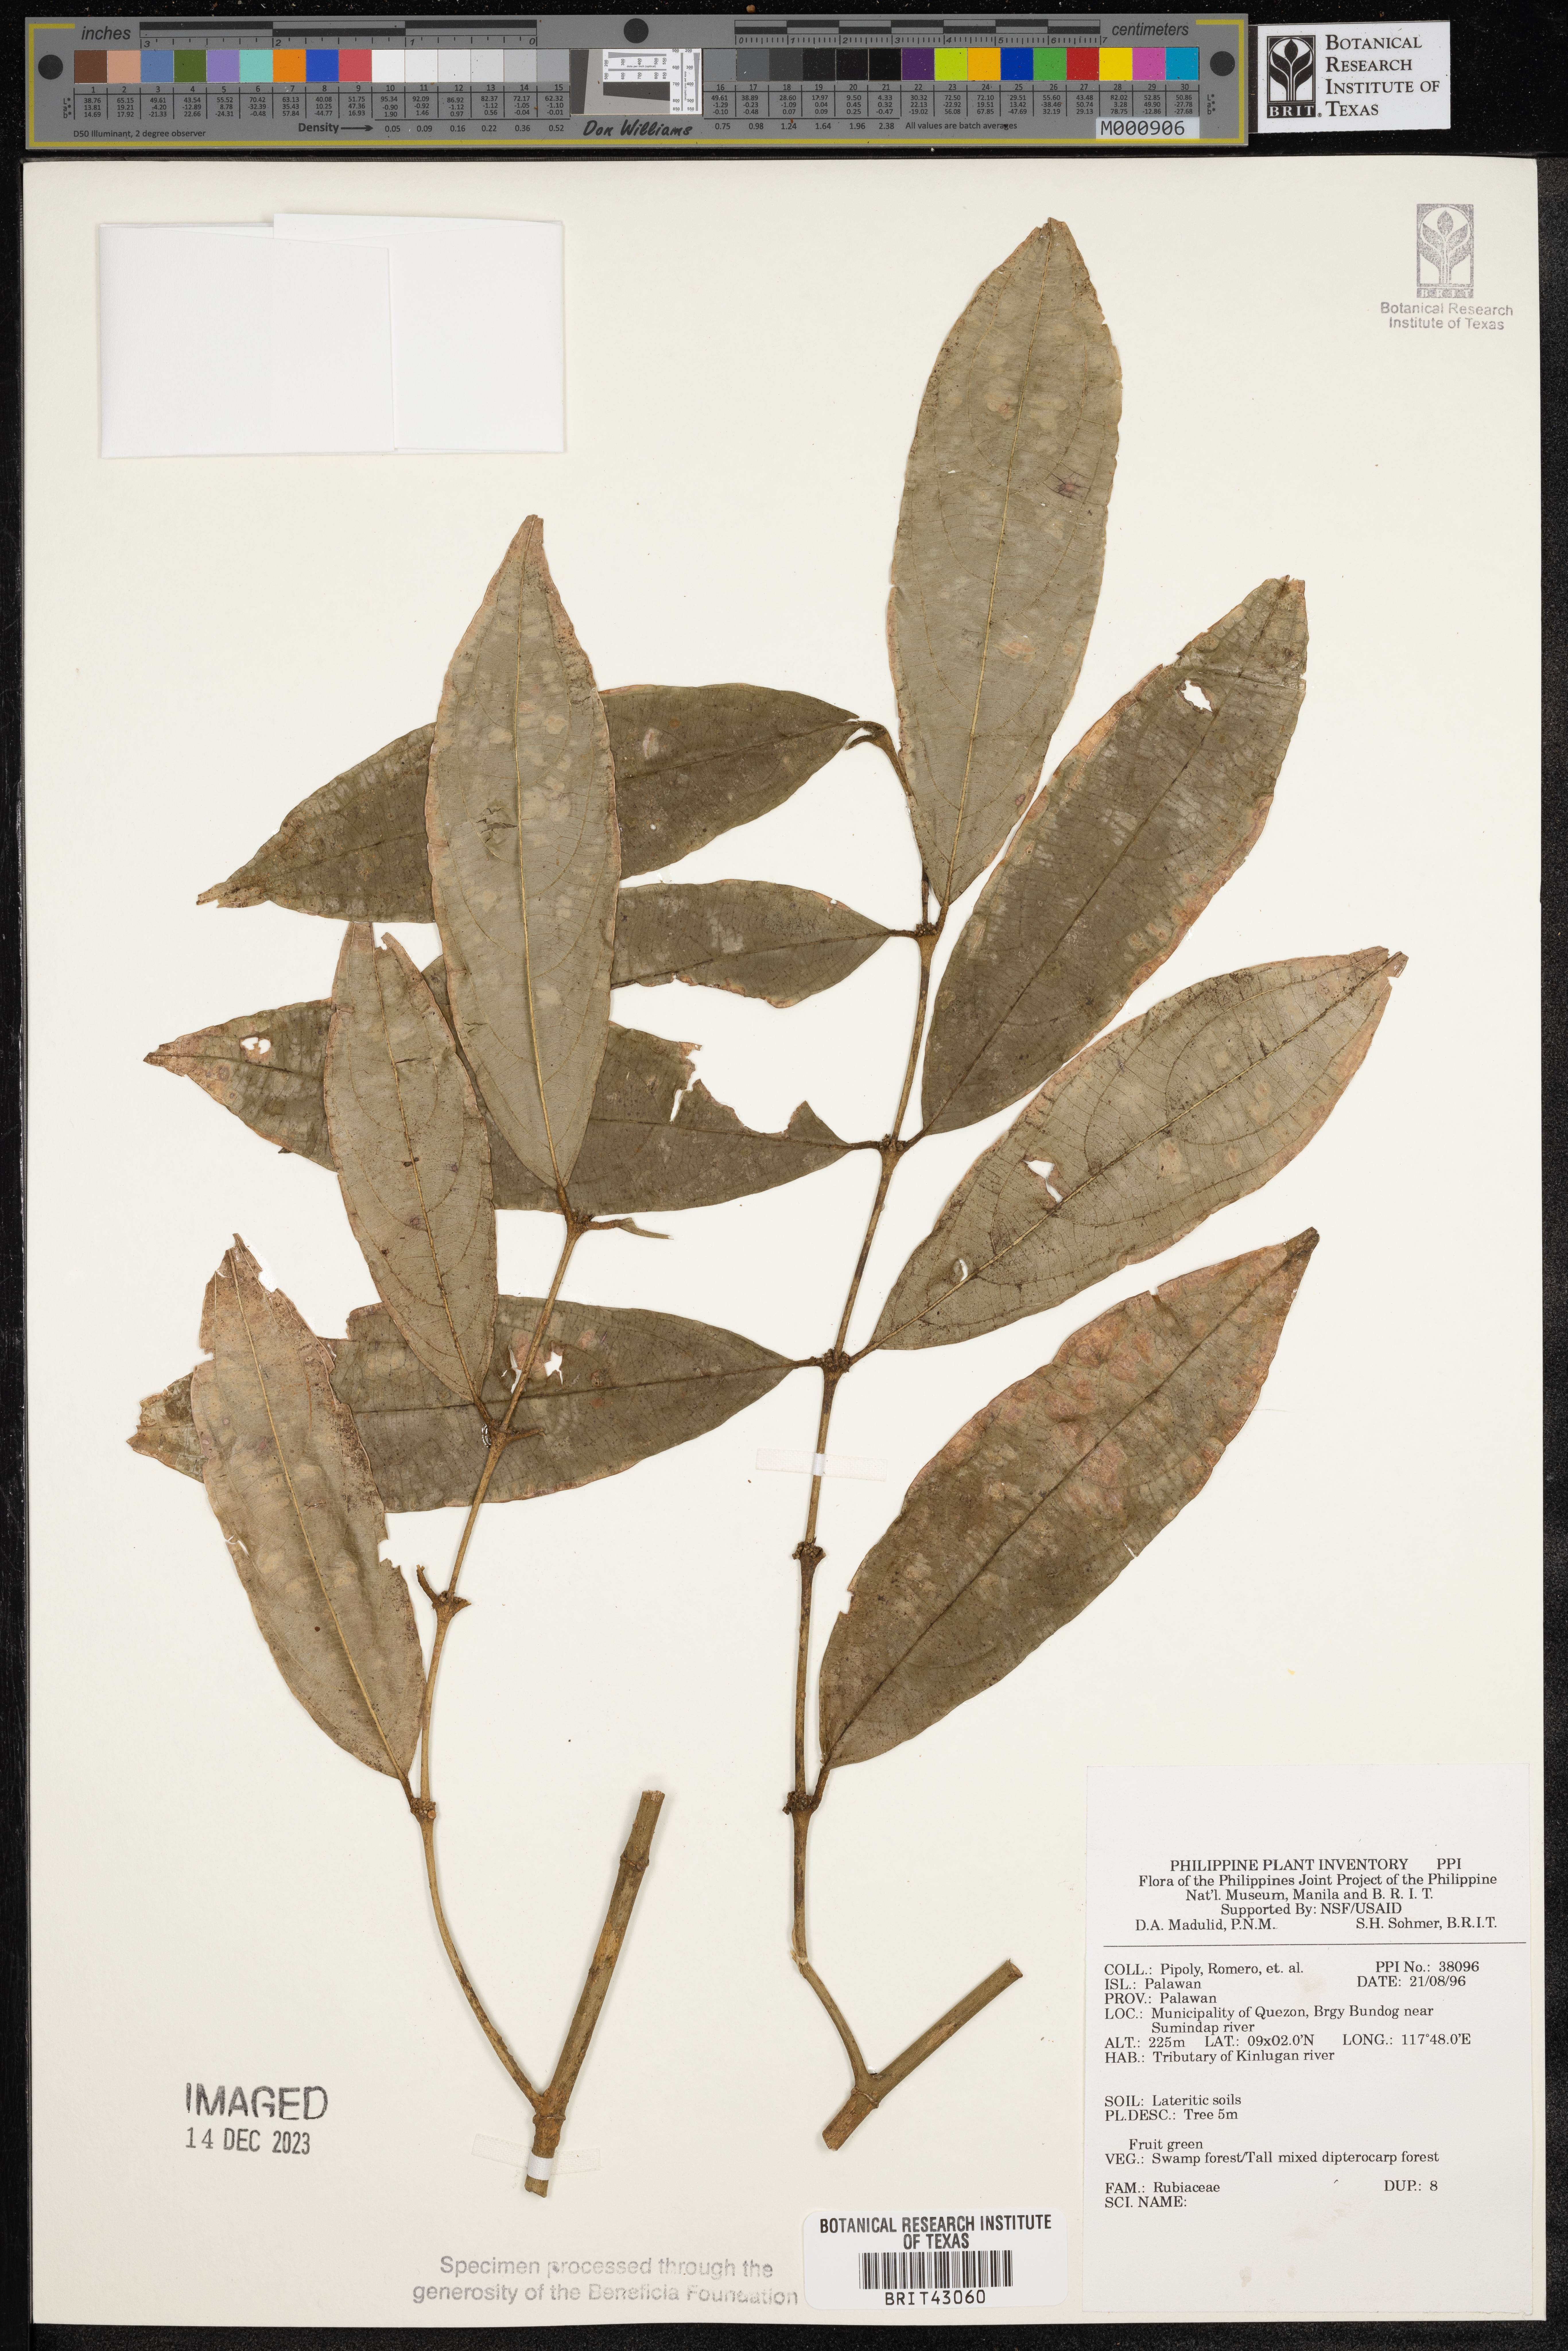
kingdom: Plantae
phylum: Tracheophyta
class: Magnoliopsida
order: Gentianales
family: Rubiaceae
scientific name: Rubiaceae
